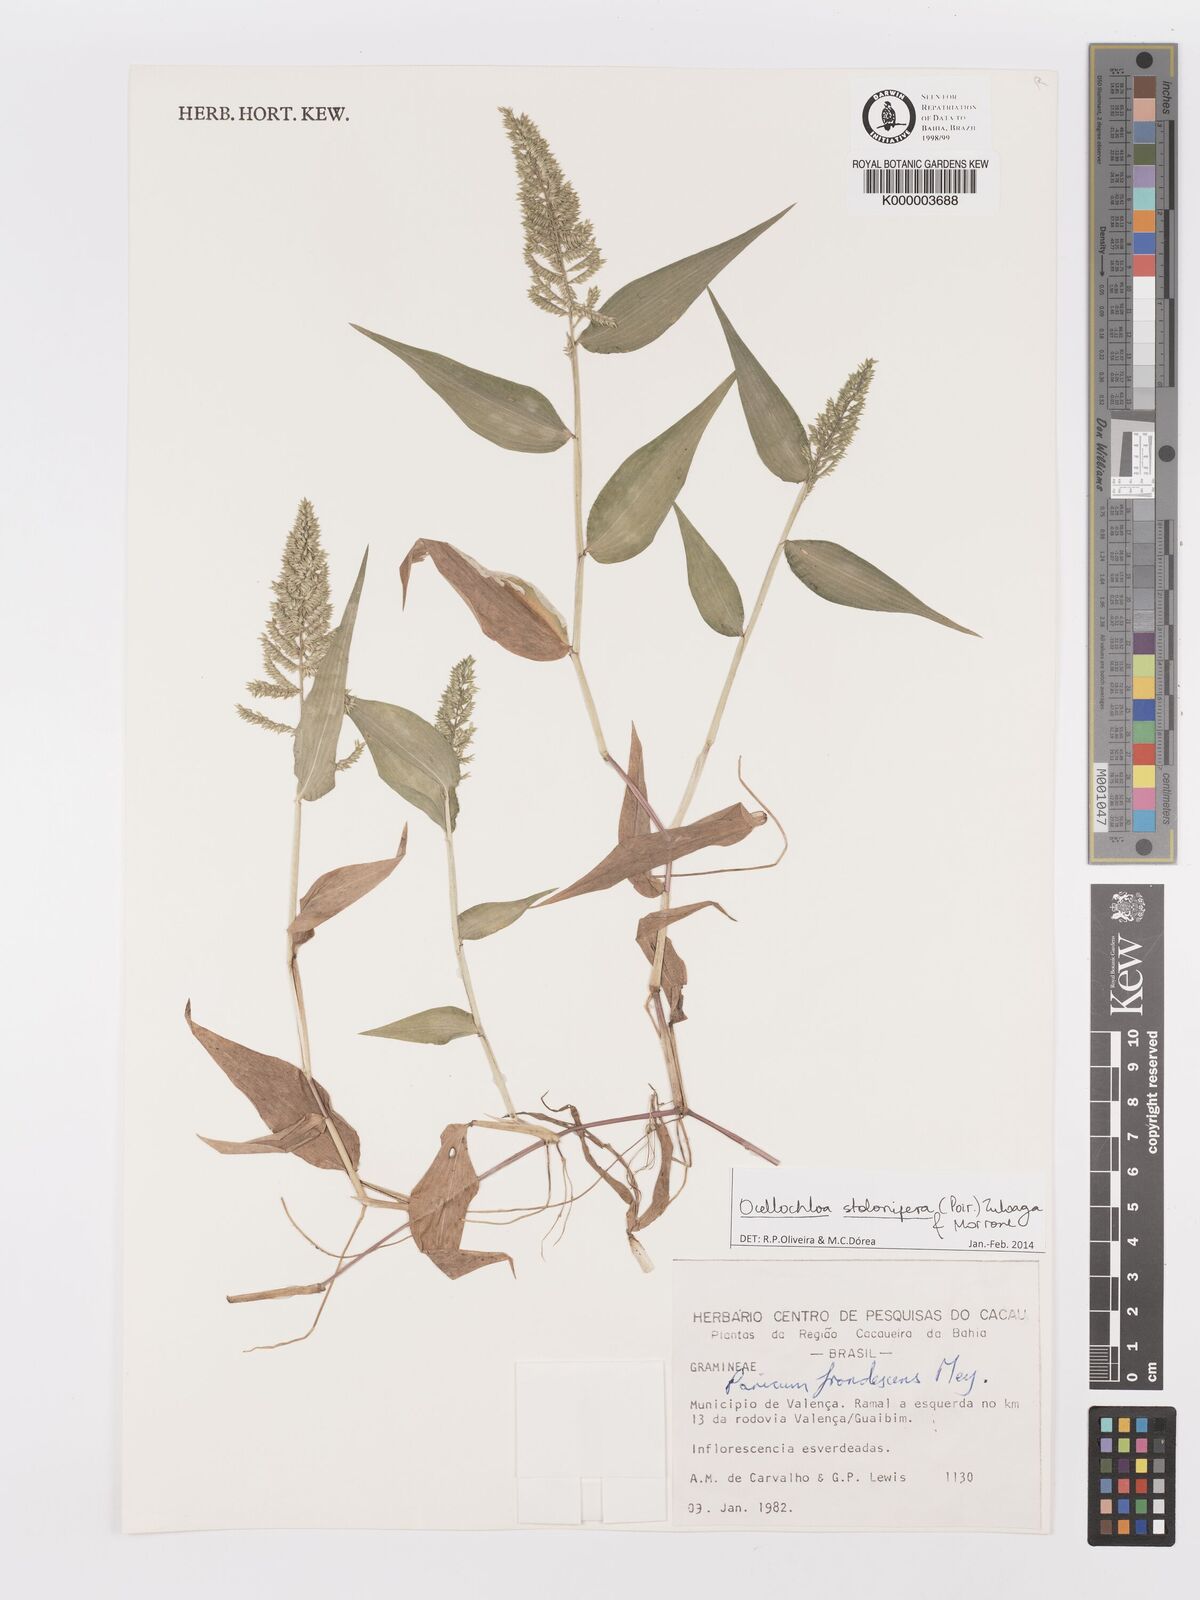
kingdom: Plantae
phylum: Tracheophyta
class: Liliopsida
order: Poales
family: Poaceae
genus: Ocellochloa
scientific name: Ocellochloa stolonifera
